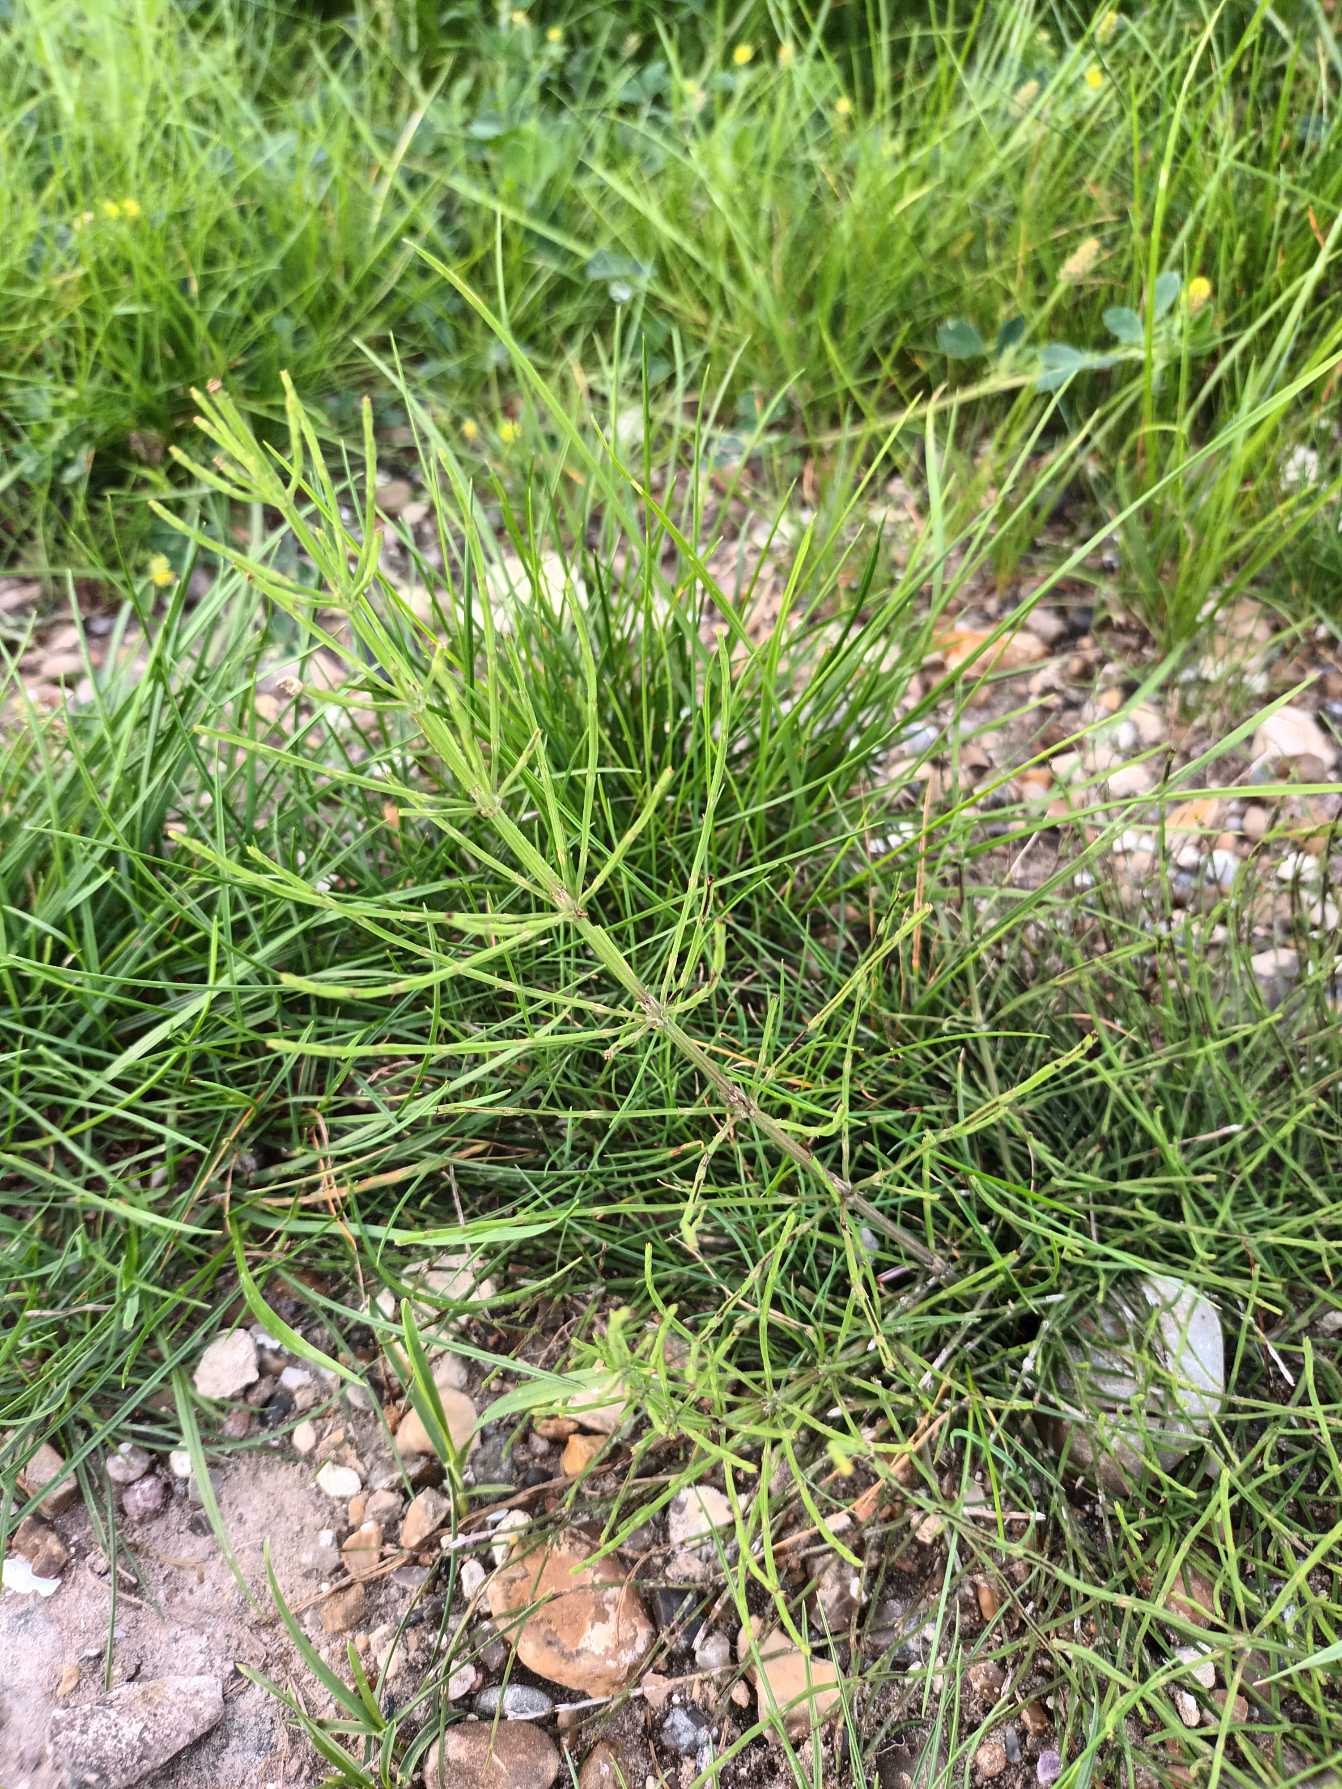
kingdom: Plantae
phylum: Tracheophyta
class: Polypodiopsida
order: Equisetales
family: Equisetaceae
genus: Equisetum
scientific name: Equisetum arvense
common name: Ager-padderok
